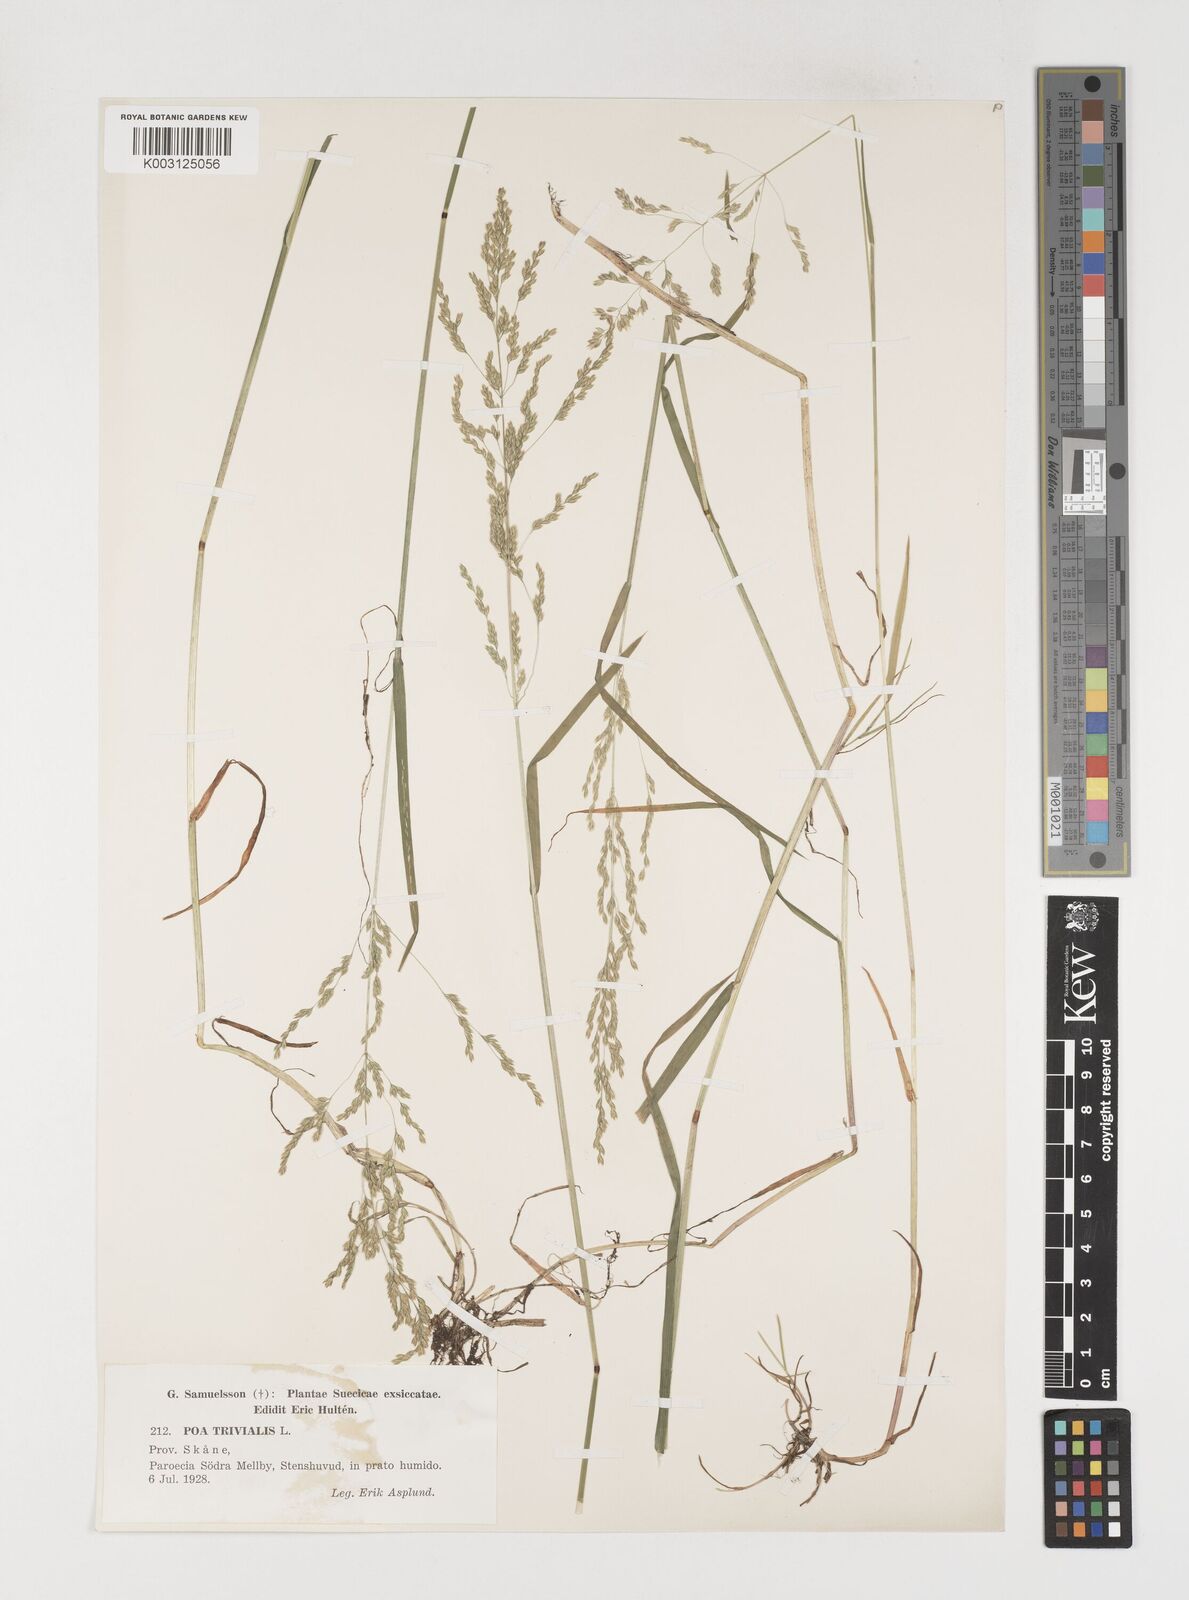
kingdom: Plantae
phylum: Tracheophyta
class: Liliopsida
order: Poales
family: Poaceae
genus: Poa
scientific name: Poa trivialis
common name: Rough bluegrass
